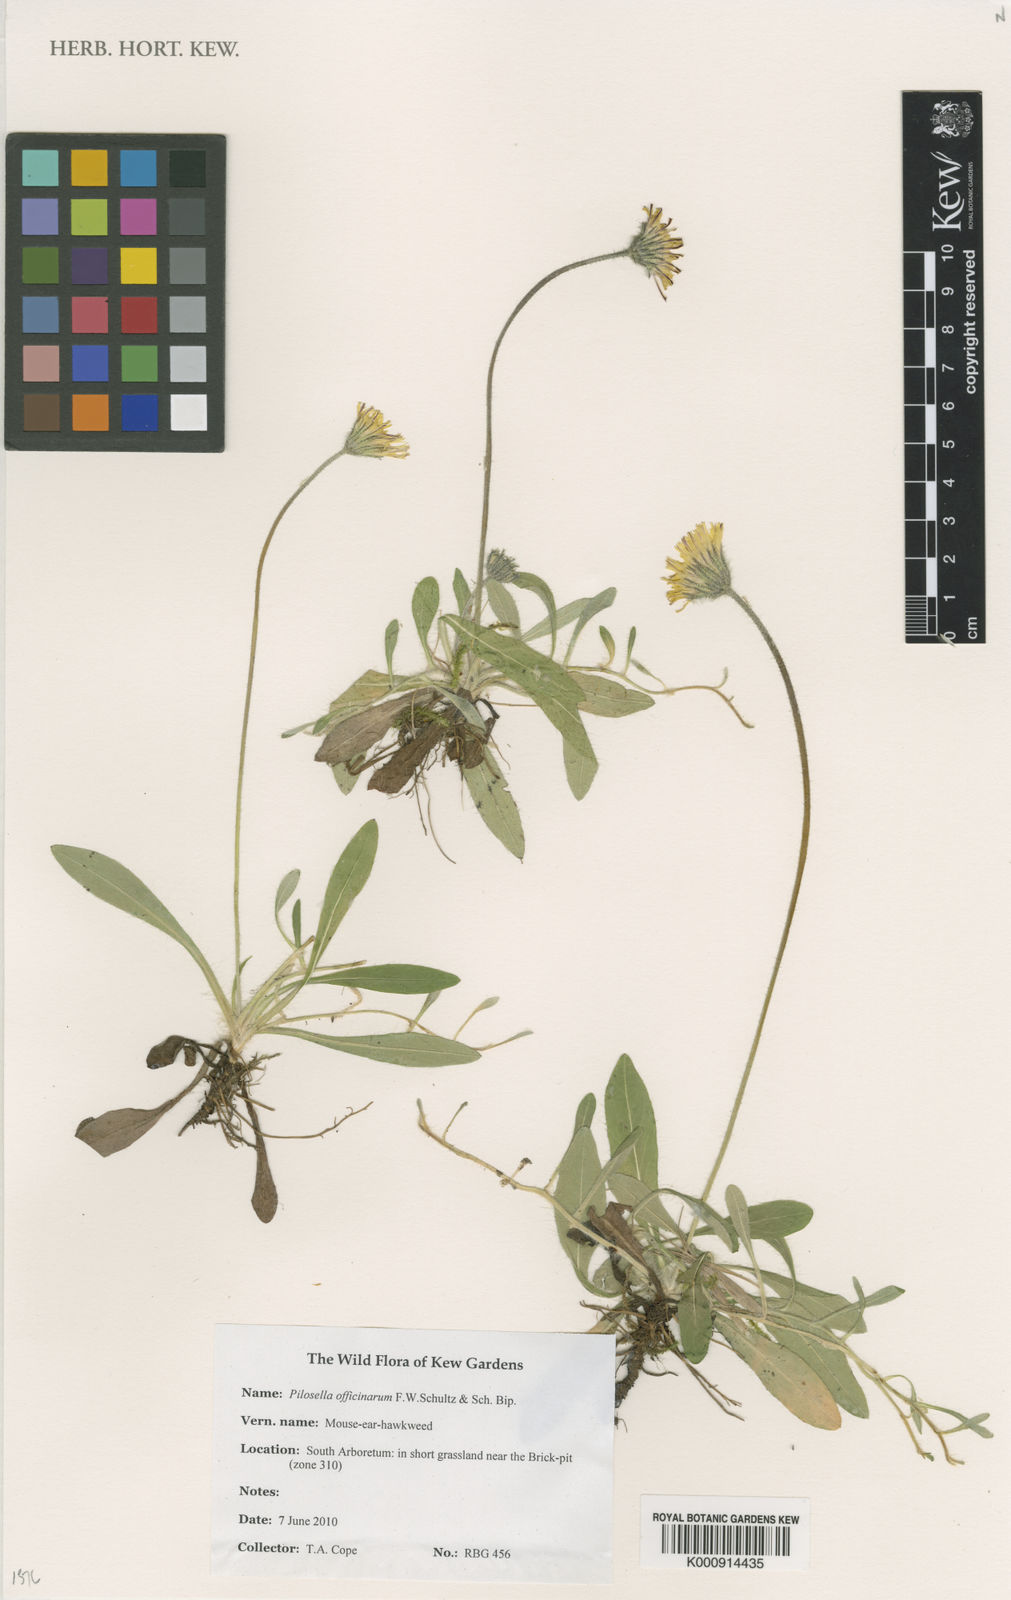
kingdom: Plantae
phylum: Tracheophyta
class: Magnoliopsida
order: Asterales
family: Asteraceae
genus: Pilosella
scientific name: Pilosella
